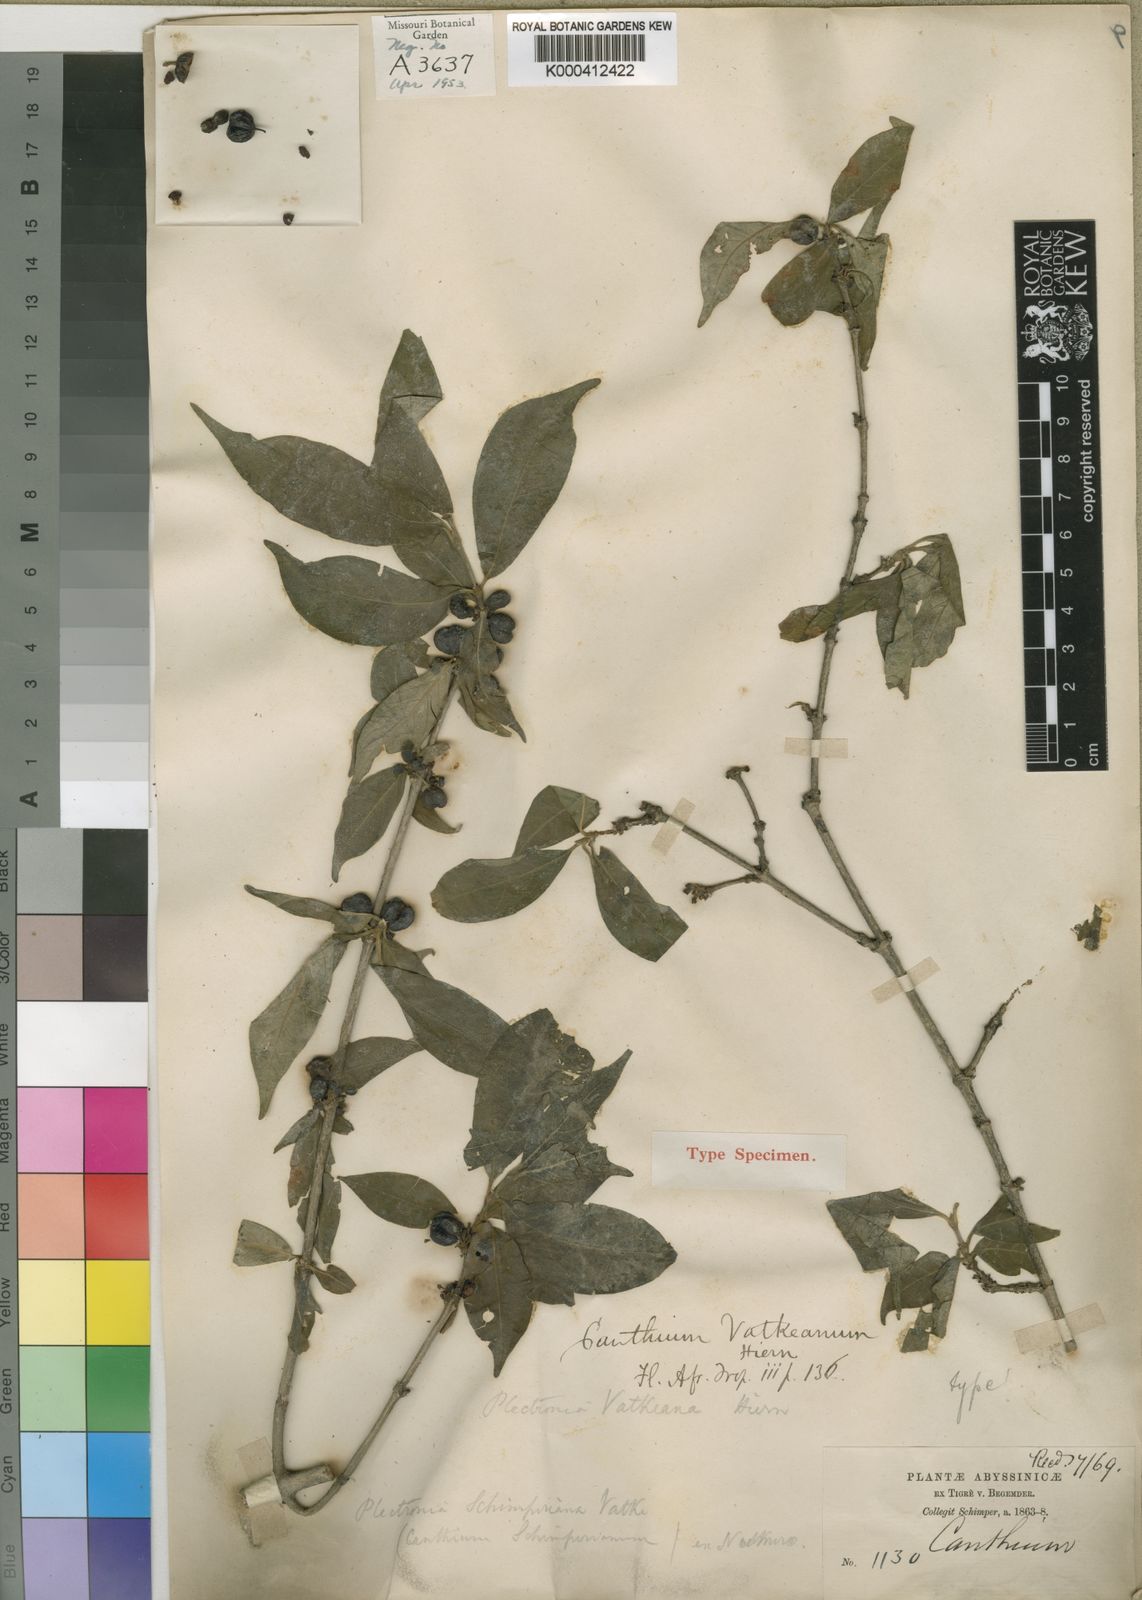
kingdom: Plantae
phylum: Tracheophyta
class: Magnoliopsida
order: Gentianales
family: Rubiaceae
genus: Rytigynia
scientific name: Rytigynia neglecta
